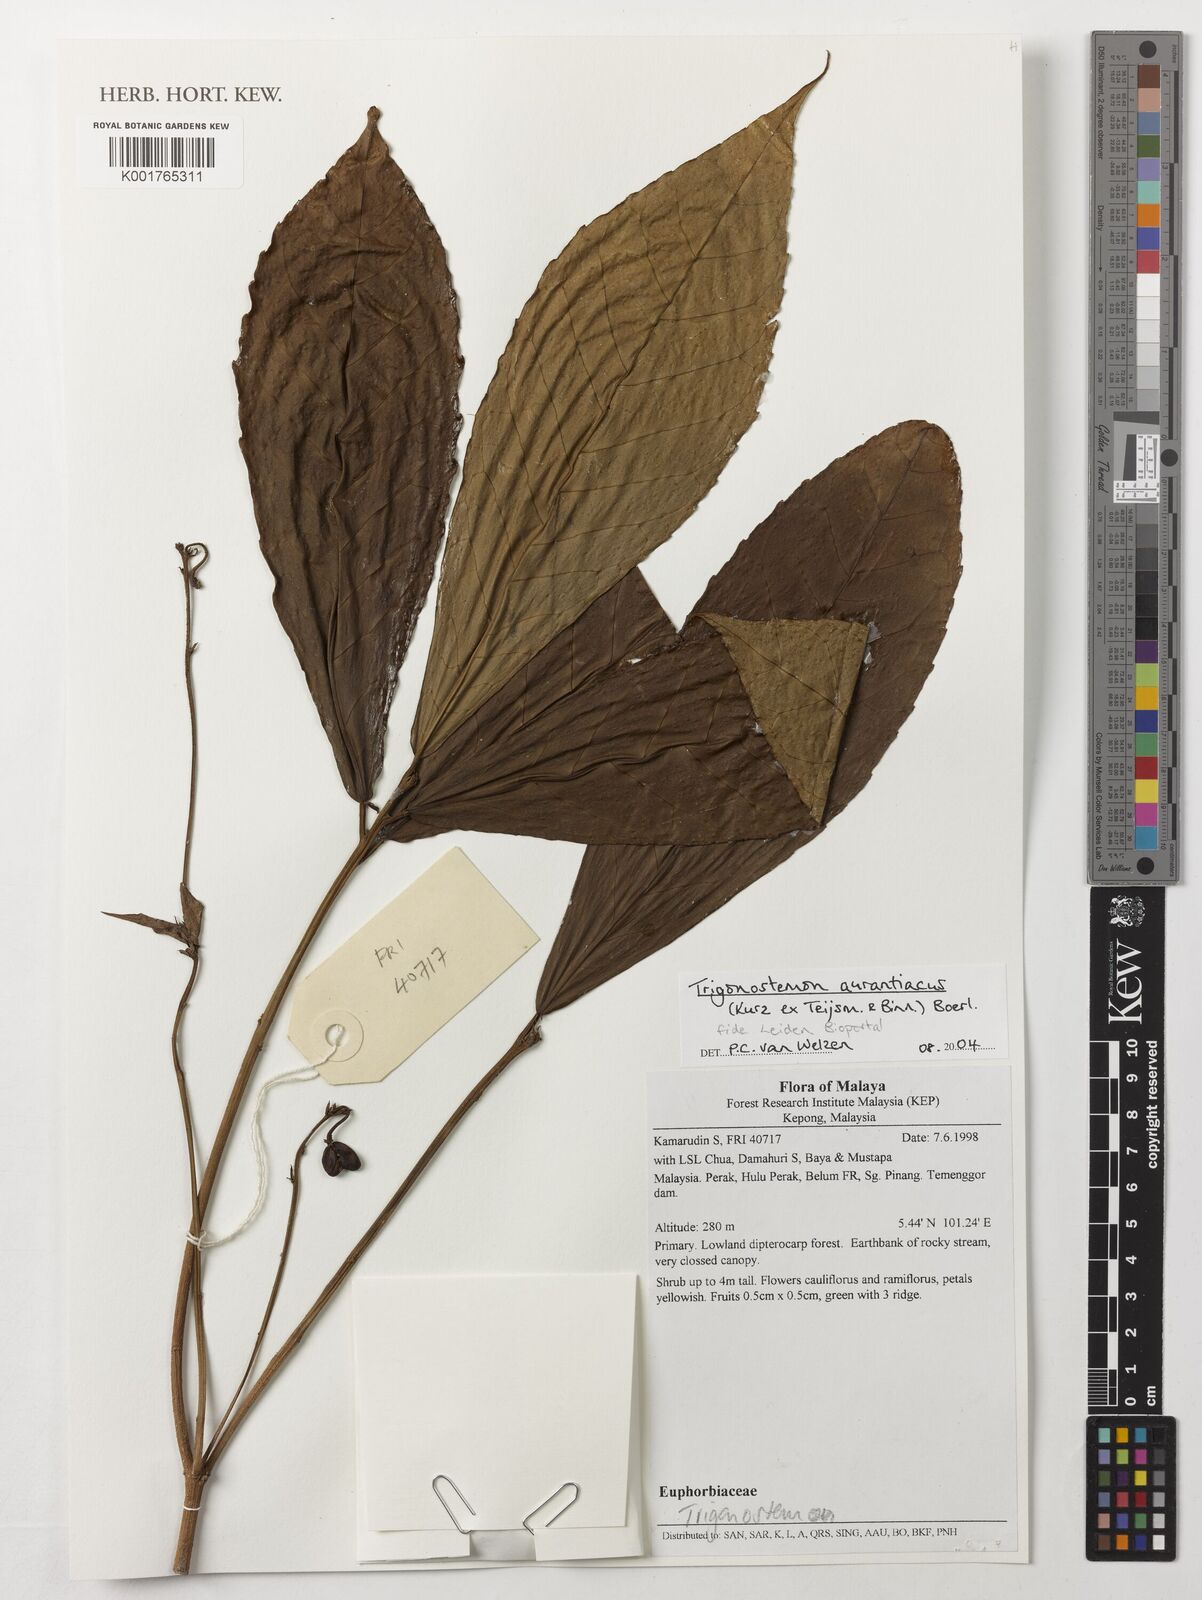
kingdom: Plantae
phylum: Tracheophyta
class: Magnoliopsida
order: Malpighiales
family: Euphorbiaceae
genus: Trigonostemon
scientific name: Trigonostemon aurantiacus
